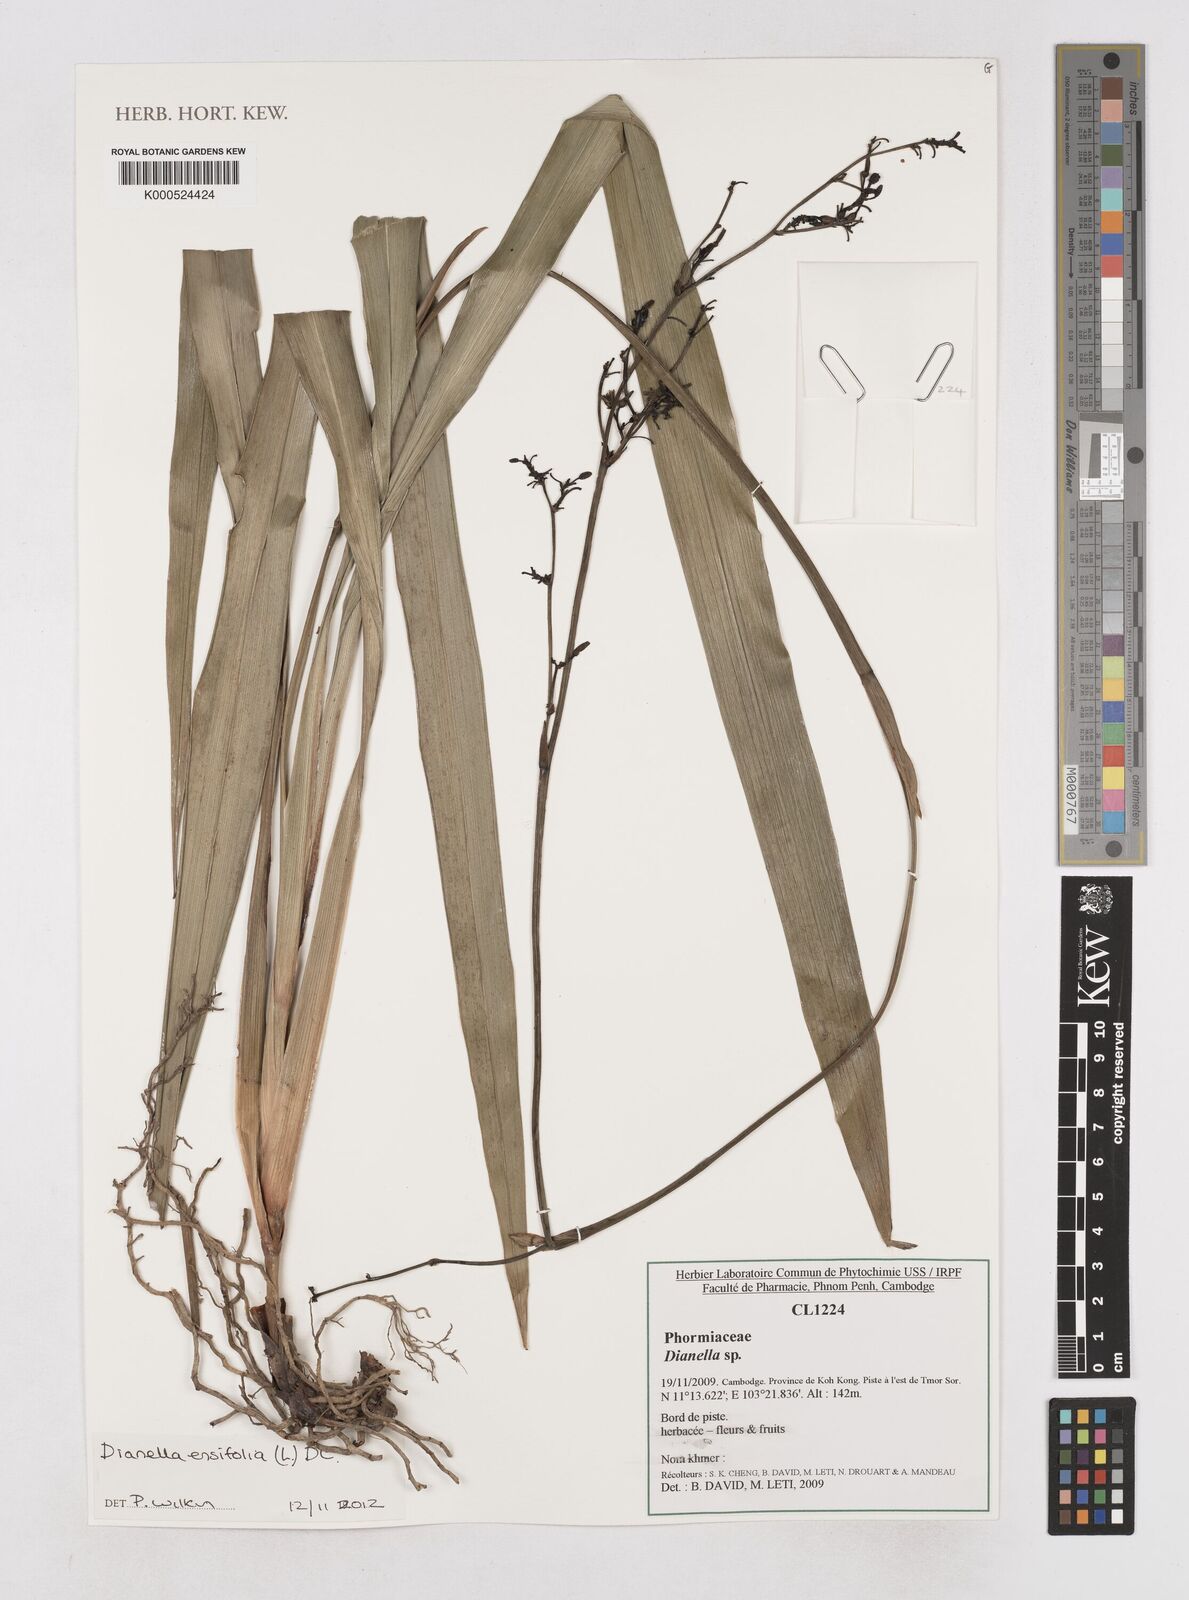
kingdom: Plantae
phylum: Tracheophyta
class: Liliopsida
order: Asparagales
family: Asphodelaceae
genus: Dianella
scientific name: Dianella
